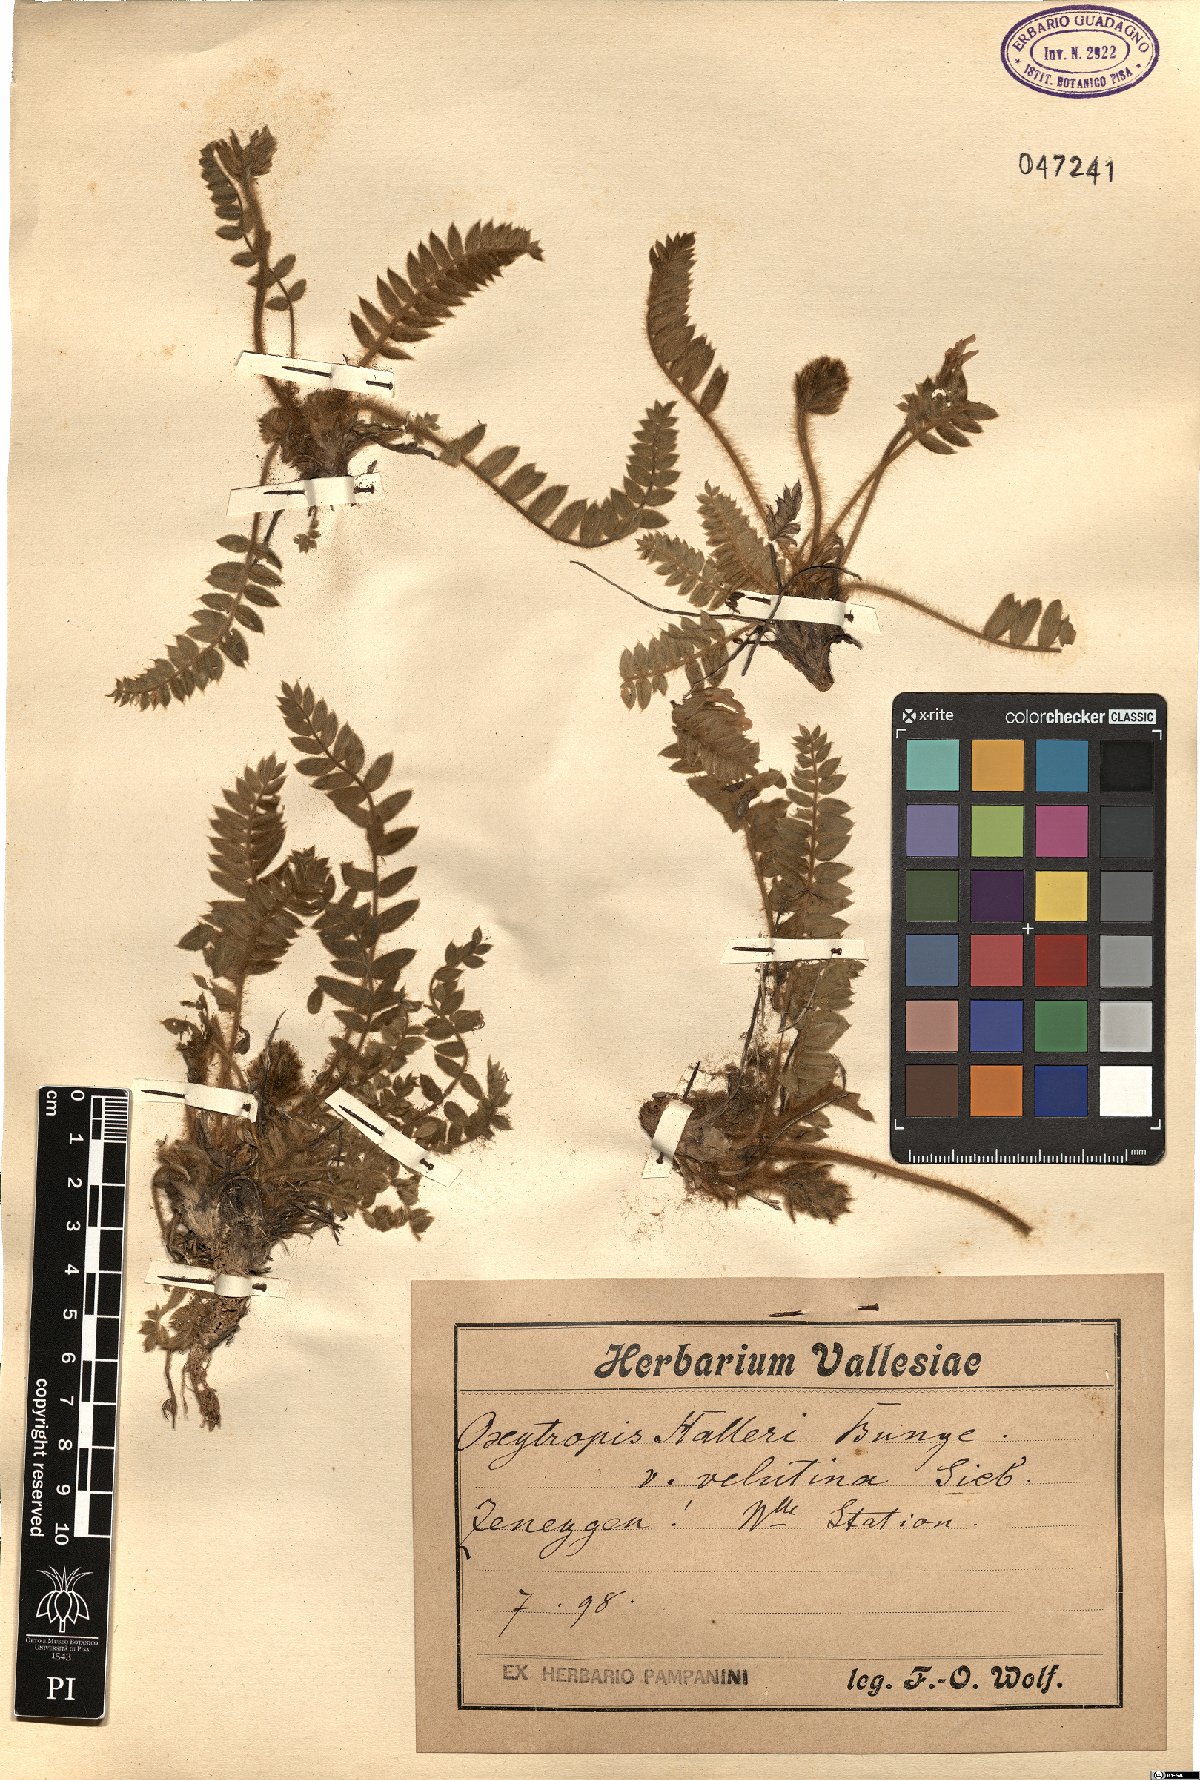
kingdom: Plantae
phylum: Tracheophyta
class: Magnoliopsida
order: Fabales
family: Fabaceae
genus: Oxytropis
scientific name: Oxytropis halleri
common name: Purple oxytropis
